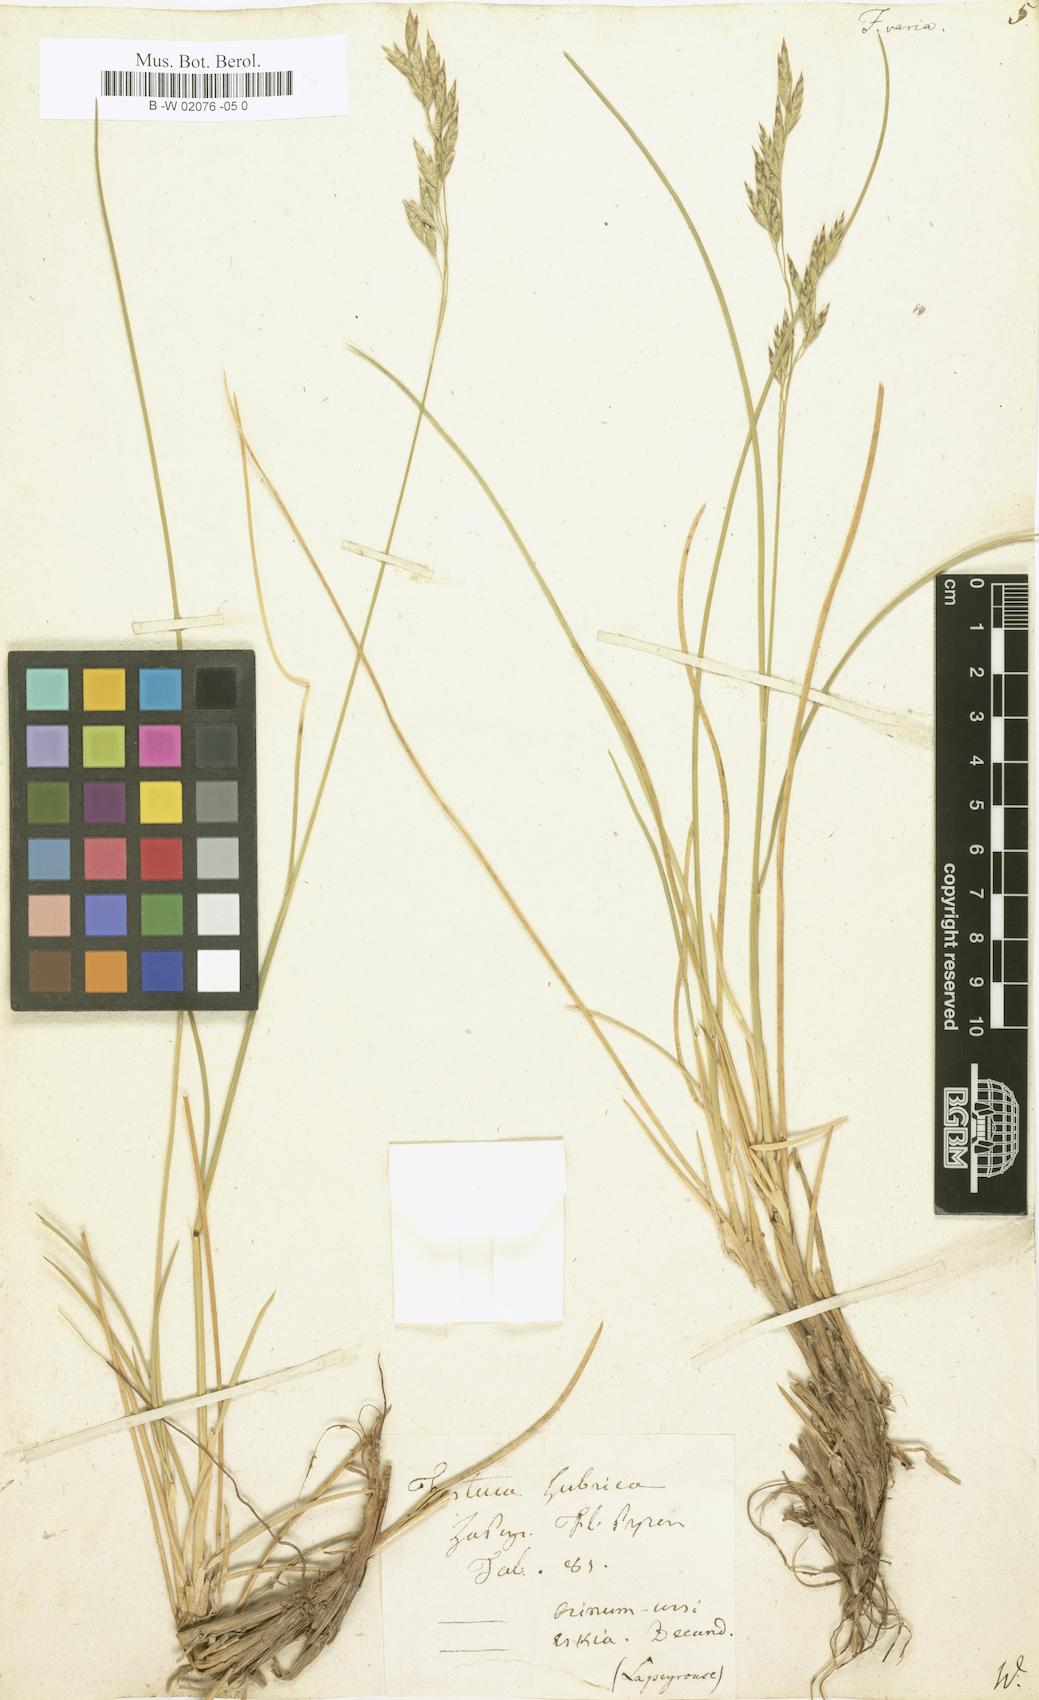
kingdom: Plantae
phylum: Tracheophyta
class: Liliopsida
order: Poales
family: Poaceae
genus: Festuca
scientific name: Festuca varia
